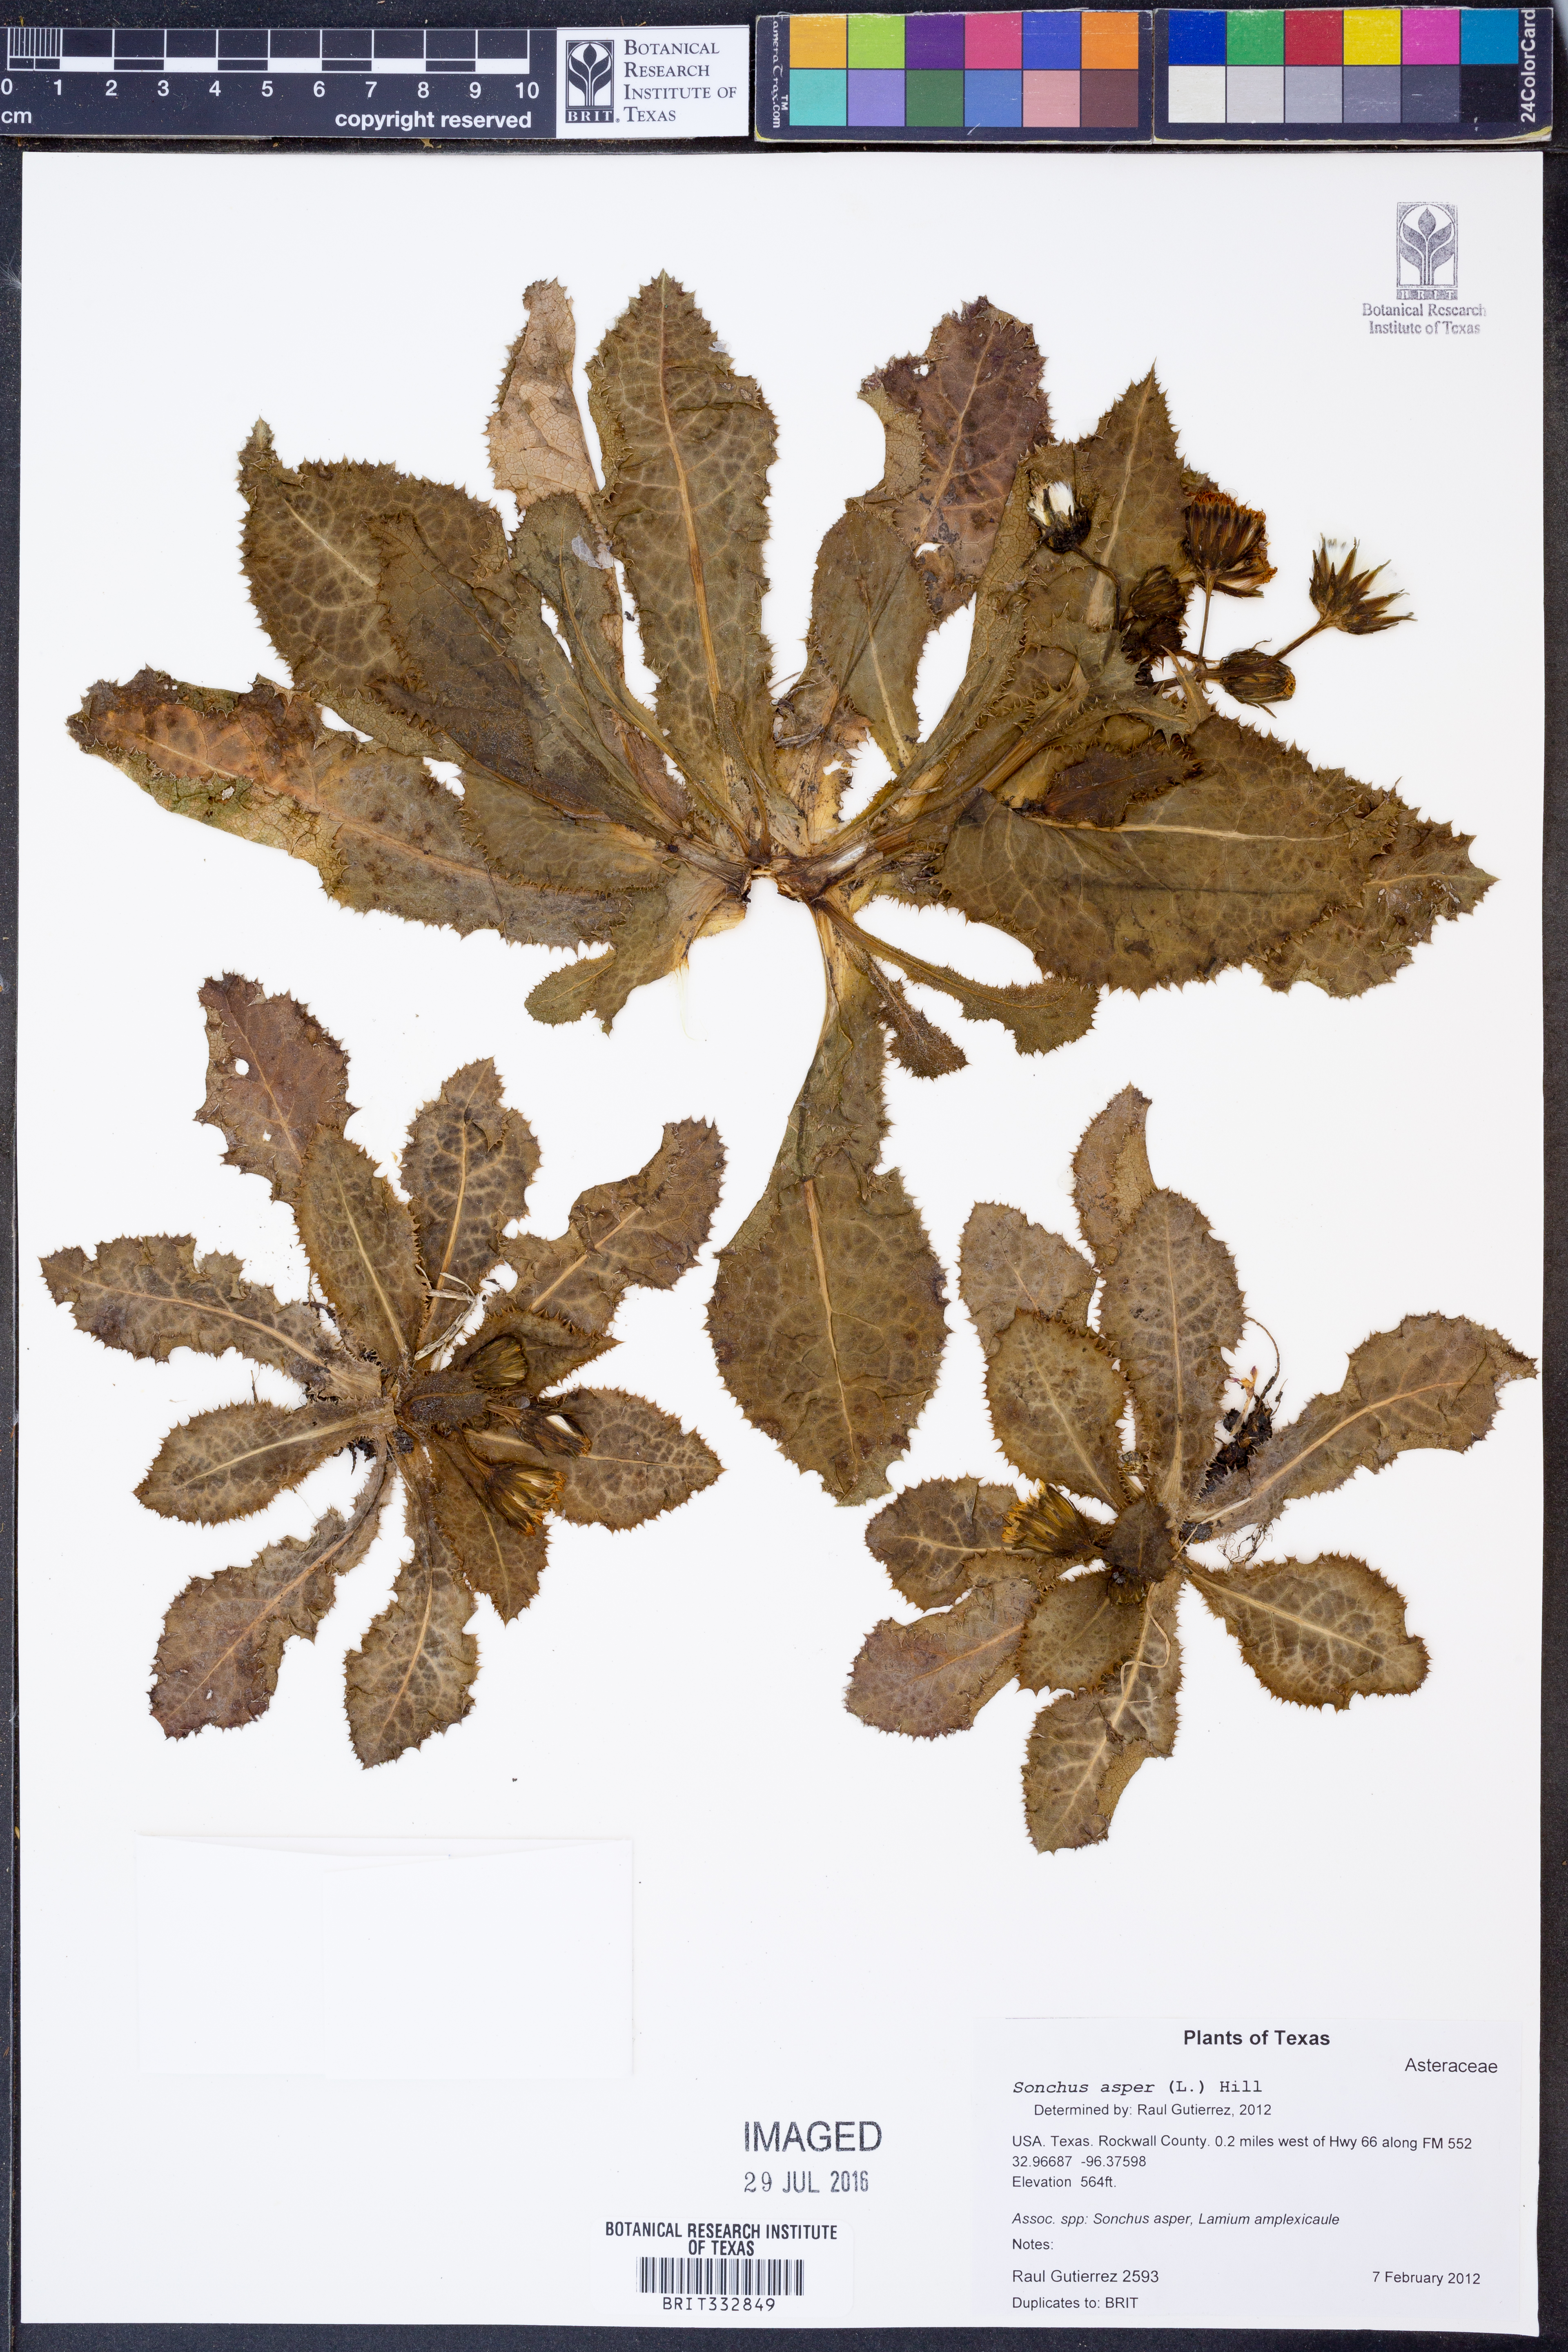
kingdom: Plantae
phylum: Tracheophyta
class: Magnoliopsida
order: Asterales
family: Asteraceae
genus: Sonchus
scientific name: Sonchus asper
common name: Prickly sow-thistle
